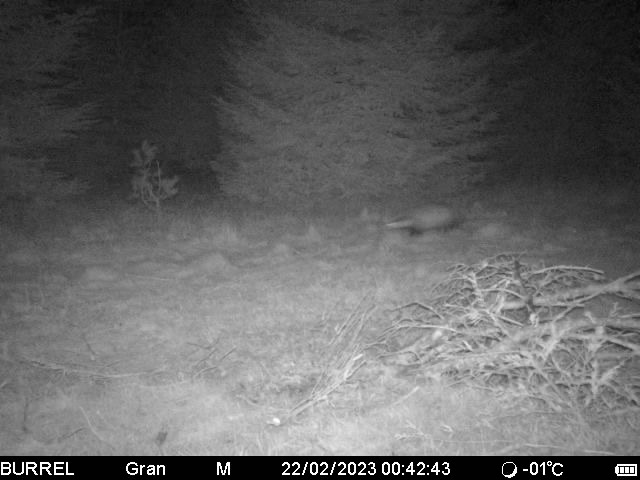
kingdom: Animalia
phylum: Chordata
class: Mammalia
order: Carnivora
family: Mustelidae
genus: Meles
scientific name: Meles meles
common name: Grævling
